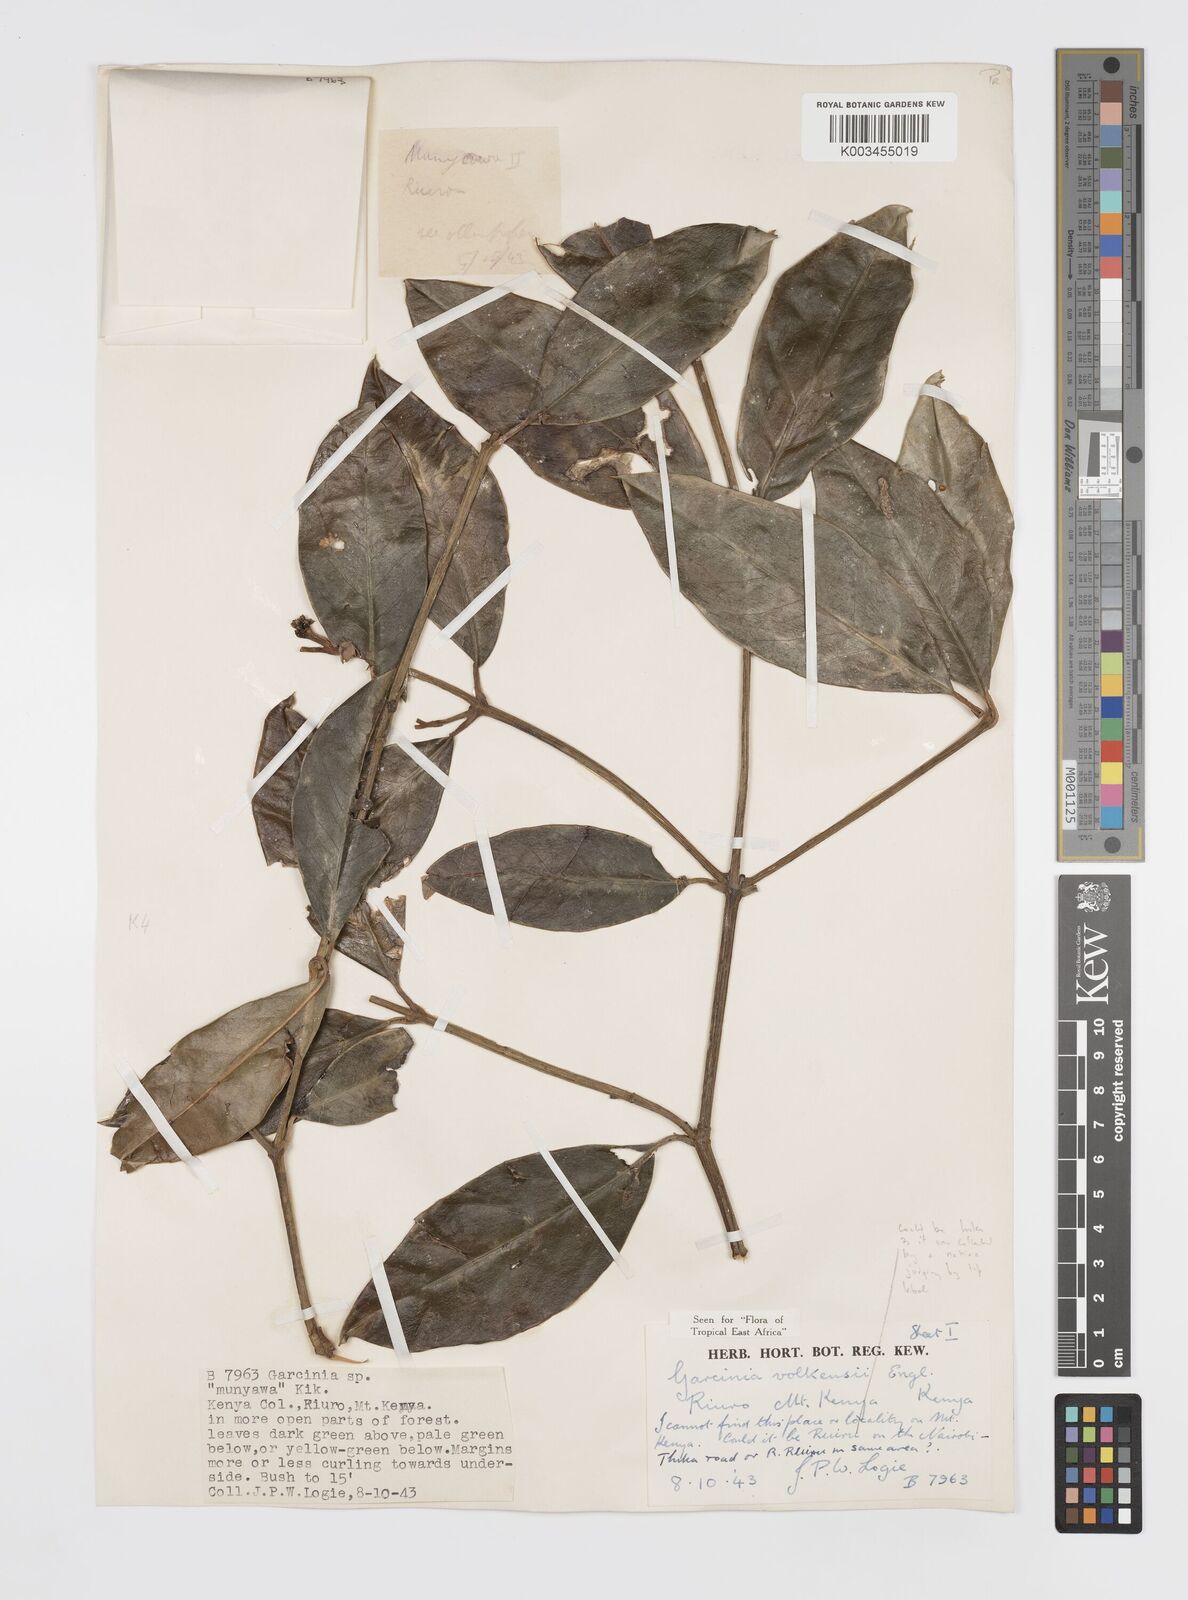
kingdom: Plantae
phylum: Tracheophyta
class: Magnoliopsida
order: Malpighiales
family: Clusiaceae
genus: Garcinia
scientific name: Garcinia volkensii
